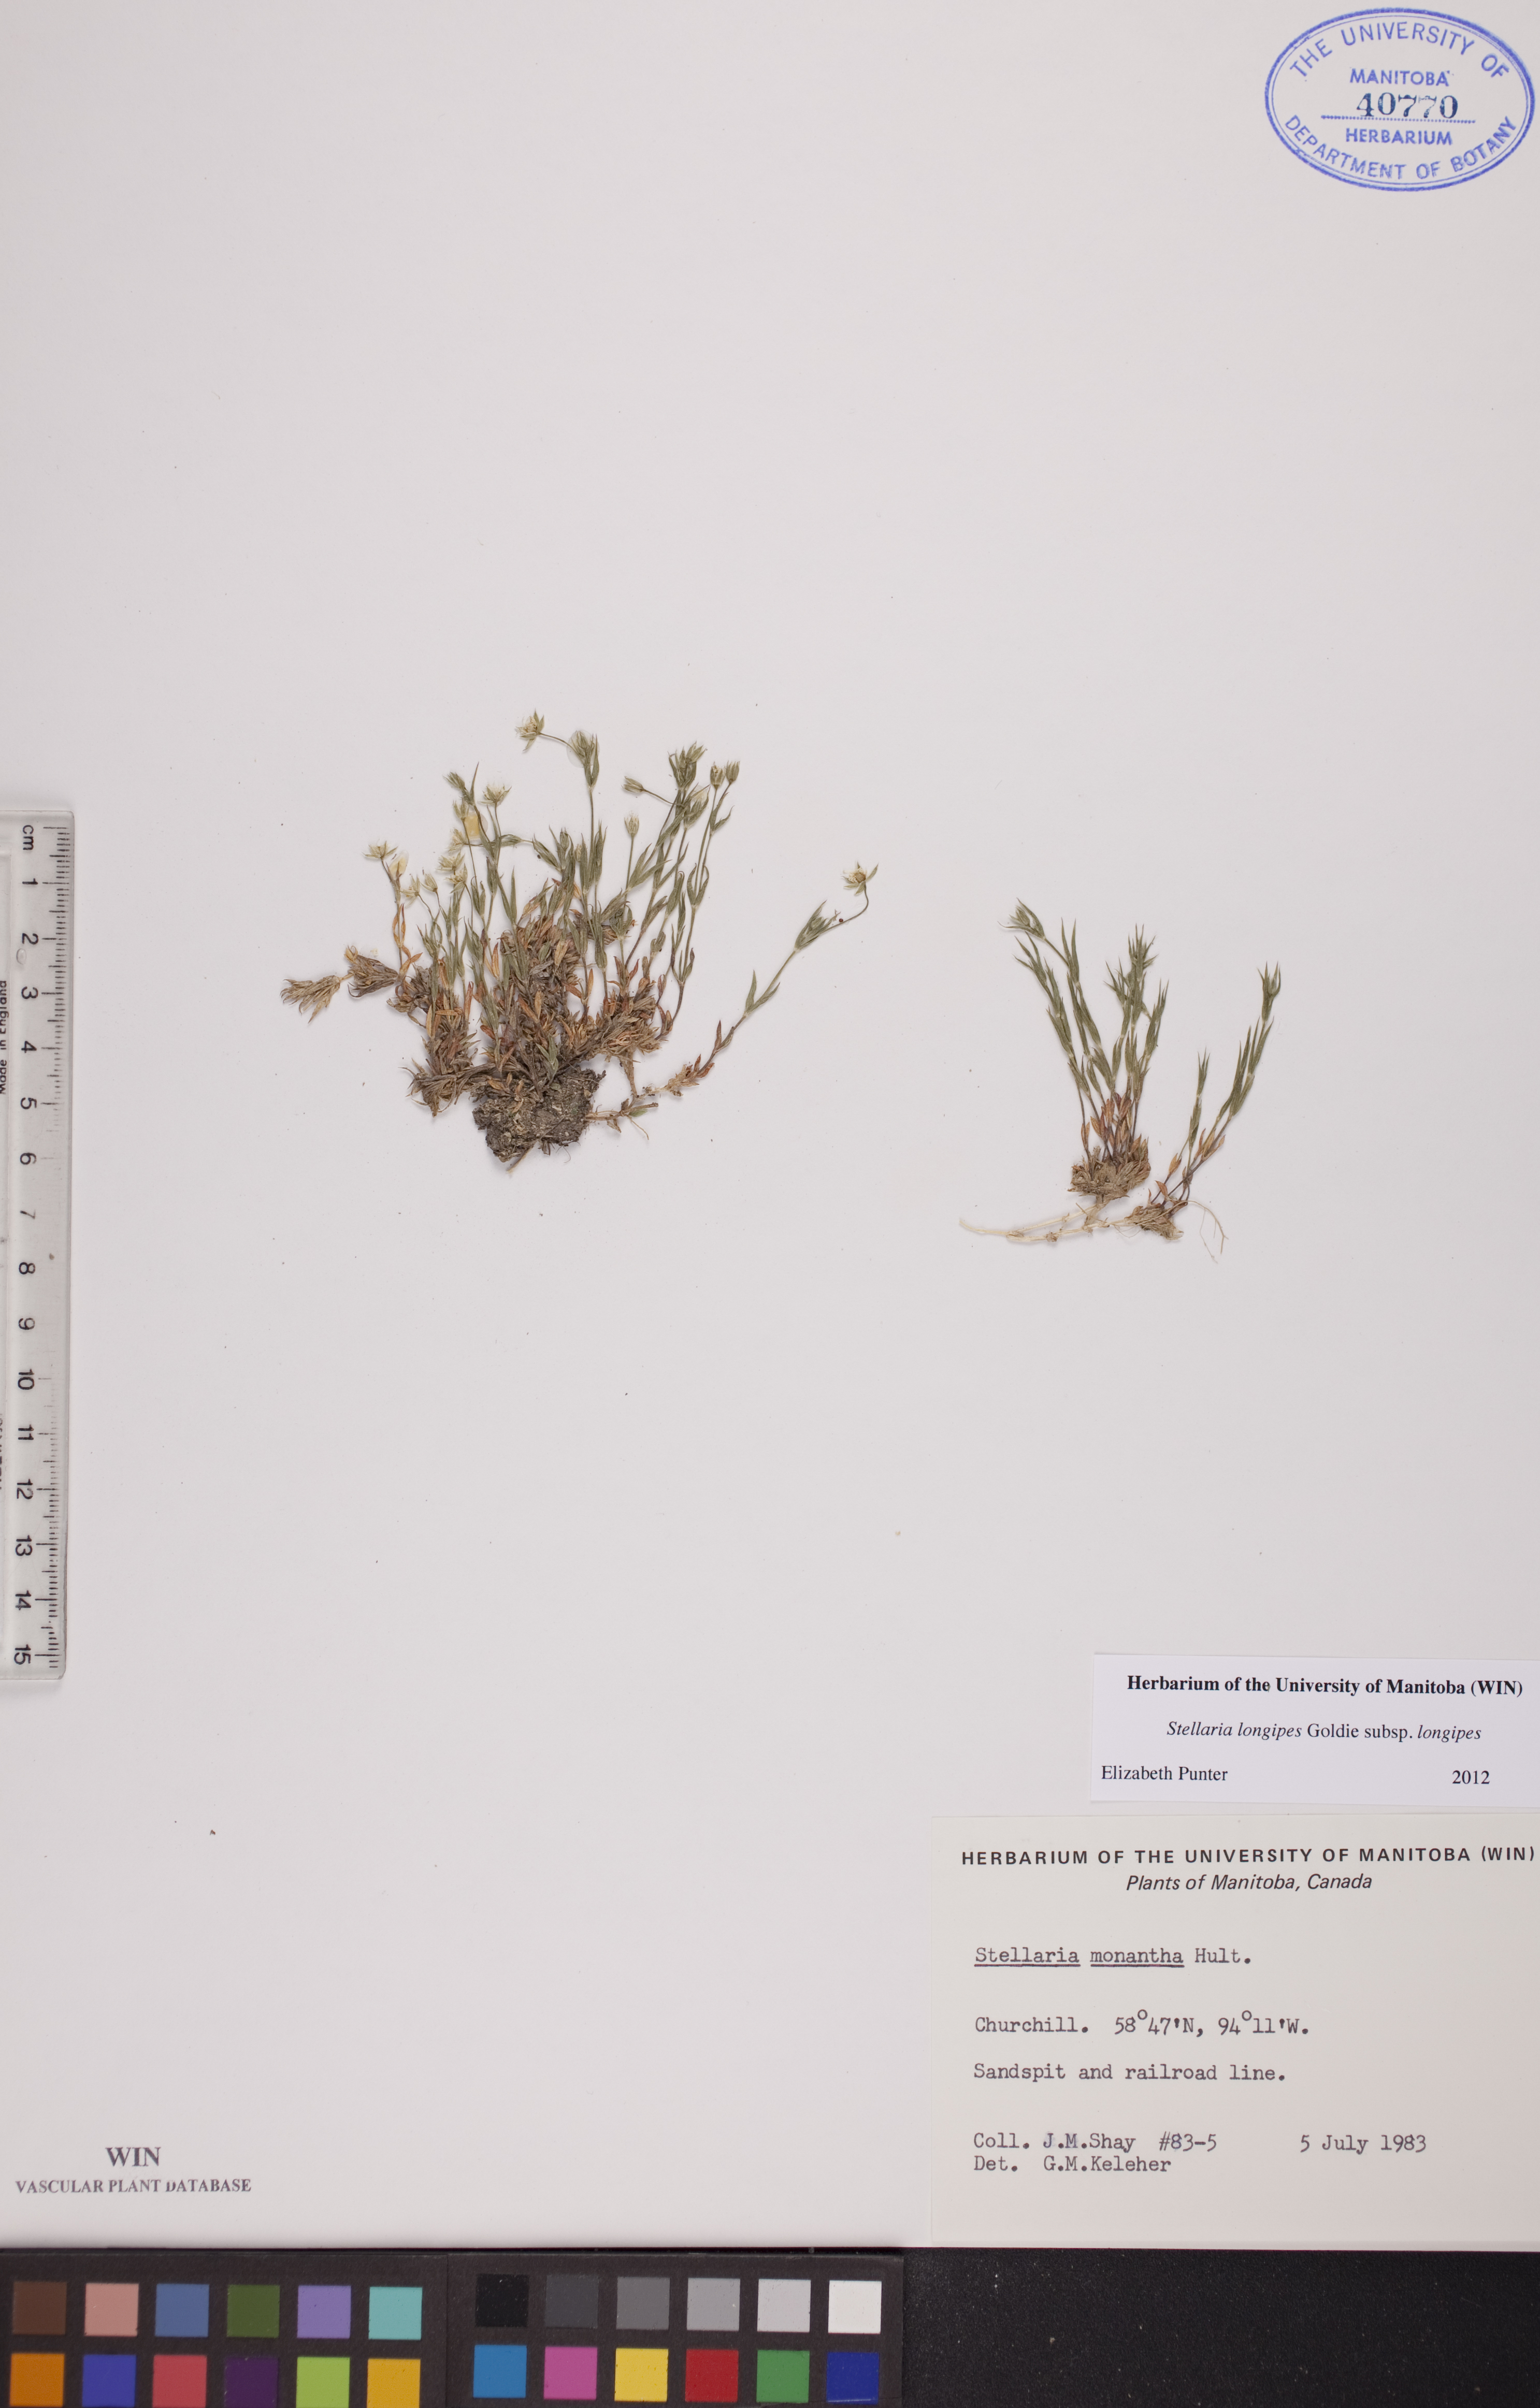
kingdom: Plantae
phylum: Tracheophyta
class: Magnoliopsida
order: Caryophyllales
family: Caryophyllaceae
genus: Stellaria
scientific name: Stellaria longipes
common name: Goldie's starwort
